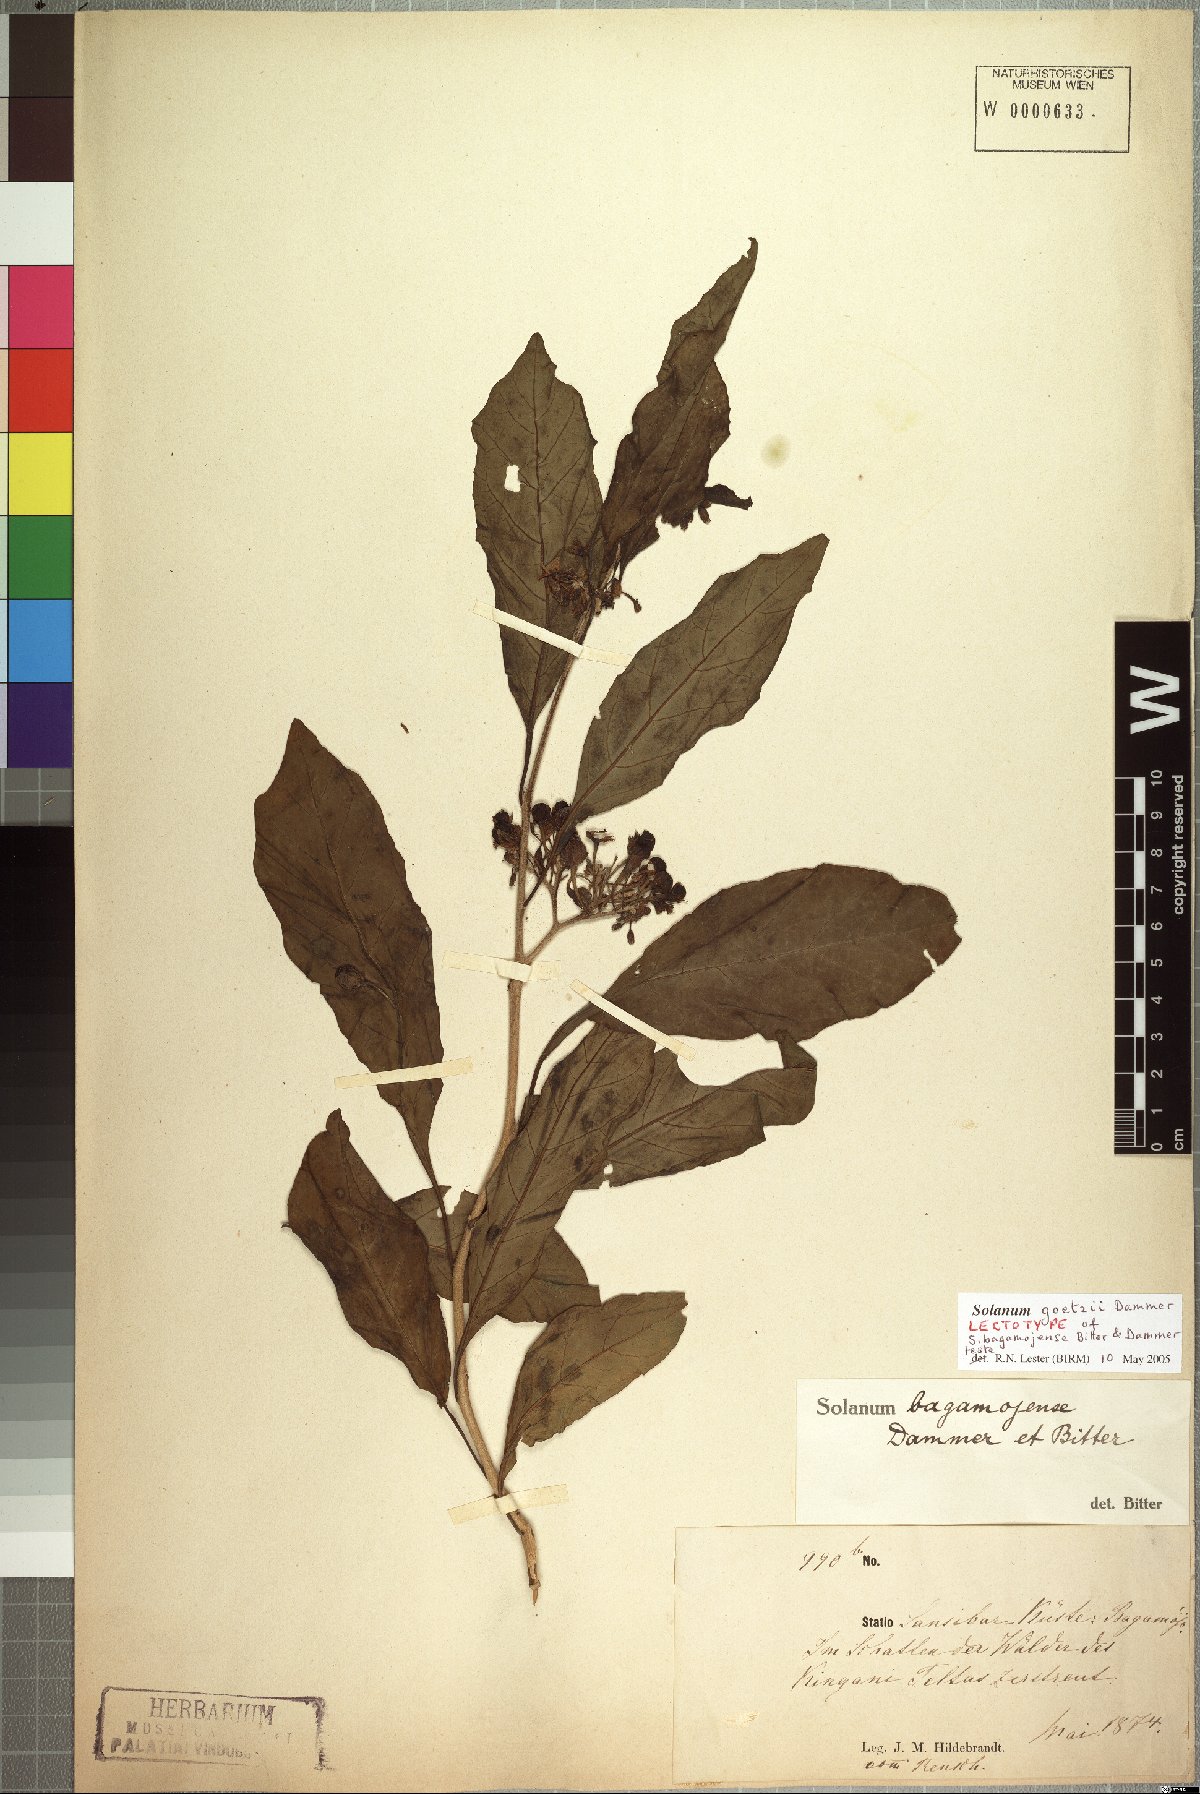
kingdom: Plantae
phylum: Tracheophyta
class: Magnoliopsida
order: Solanales
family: Solanaceae
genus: Solanum
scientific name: Solanum goetzei
